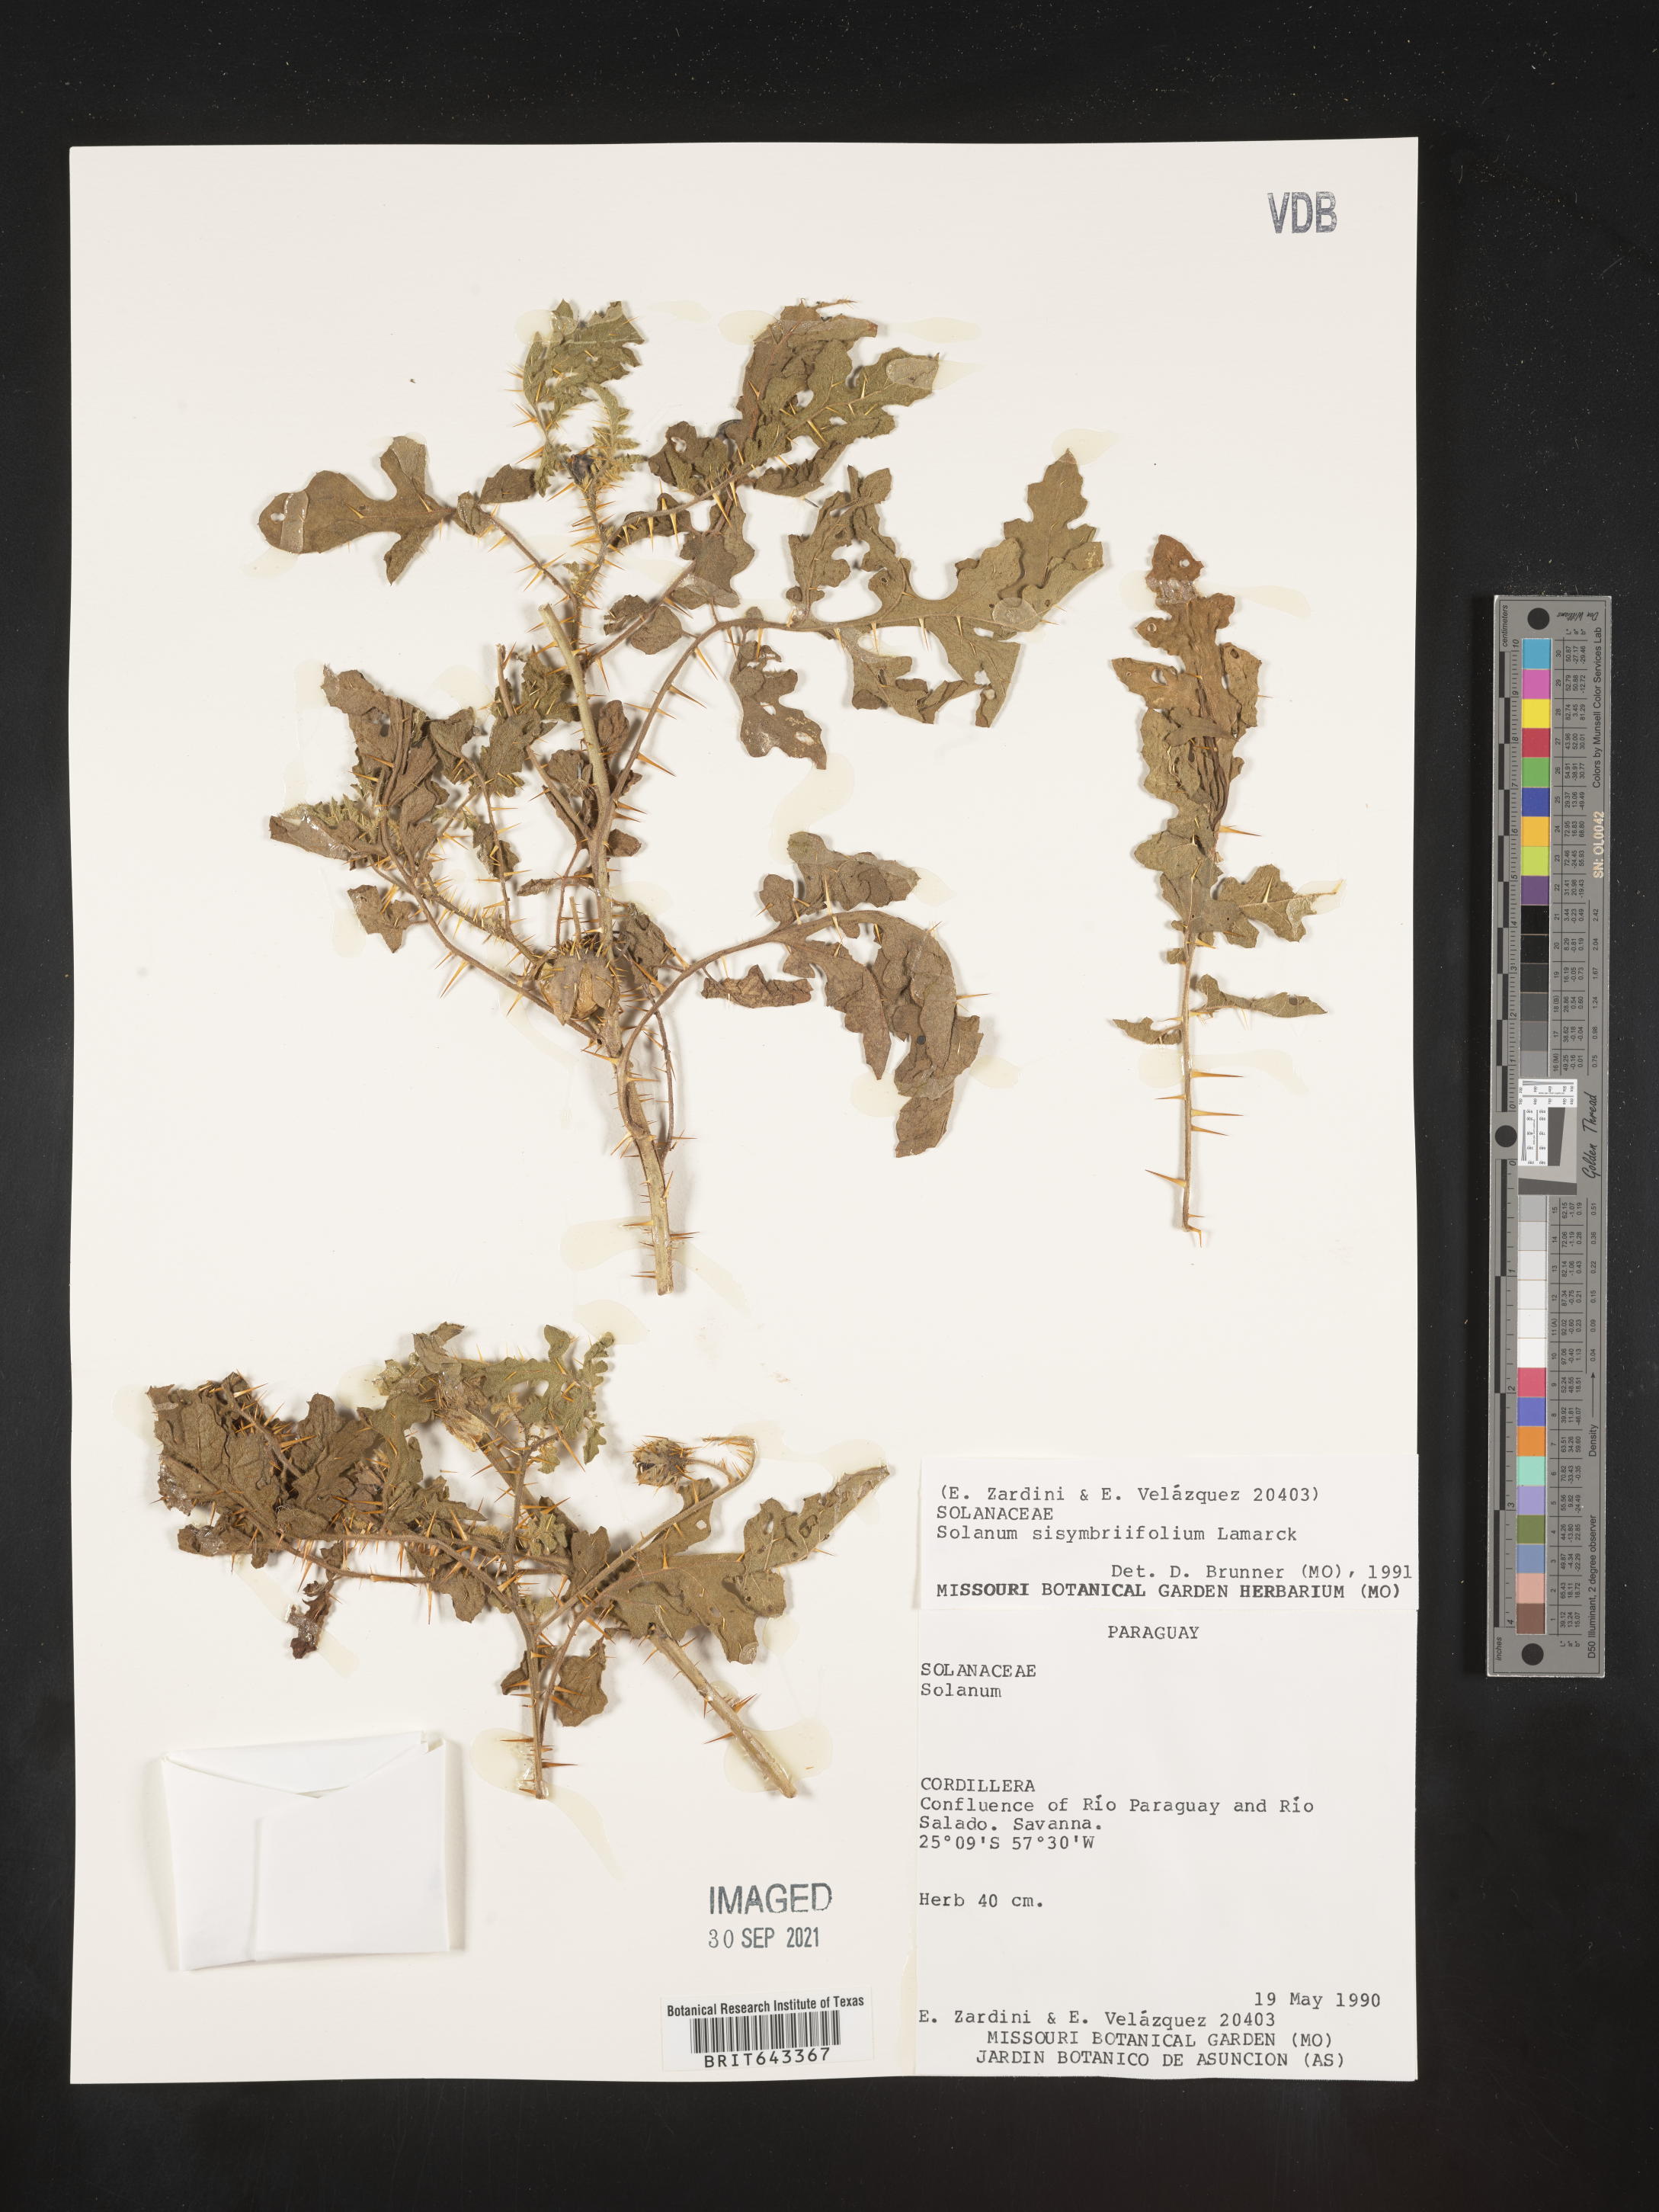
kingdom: Plantae
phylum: Tracheophyta
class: Magnoliopsida
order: Solanales
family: Solanaceae
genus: Solanum
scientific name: Solanum
